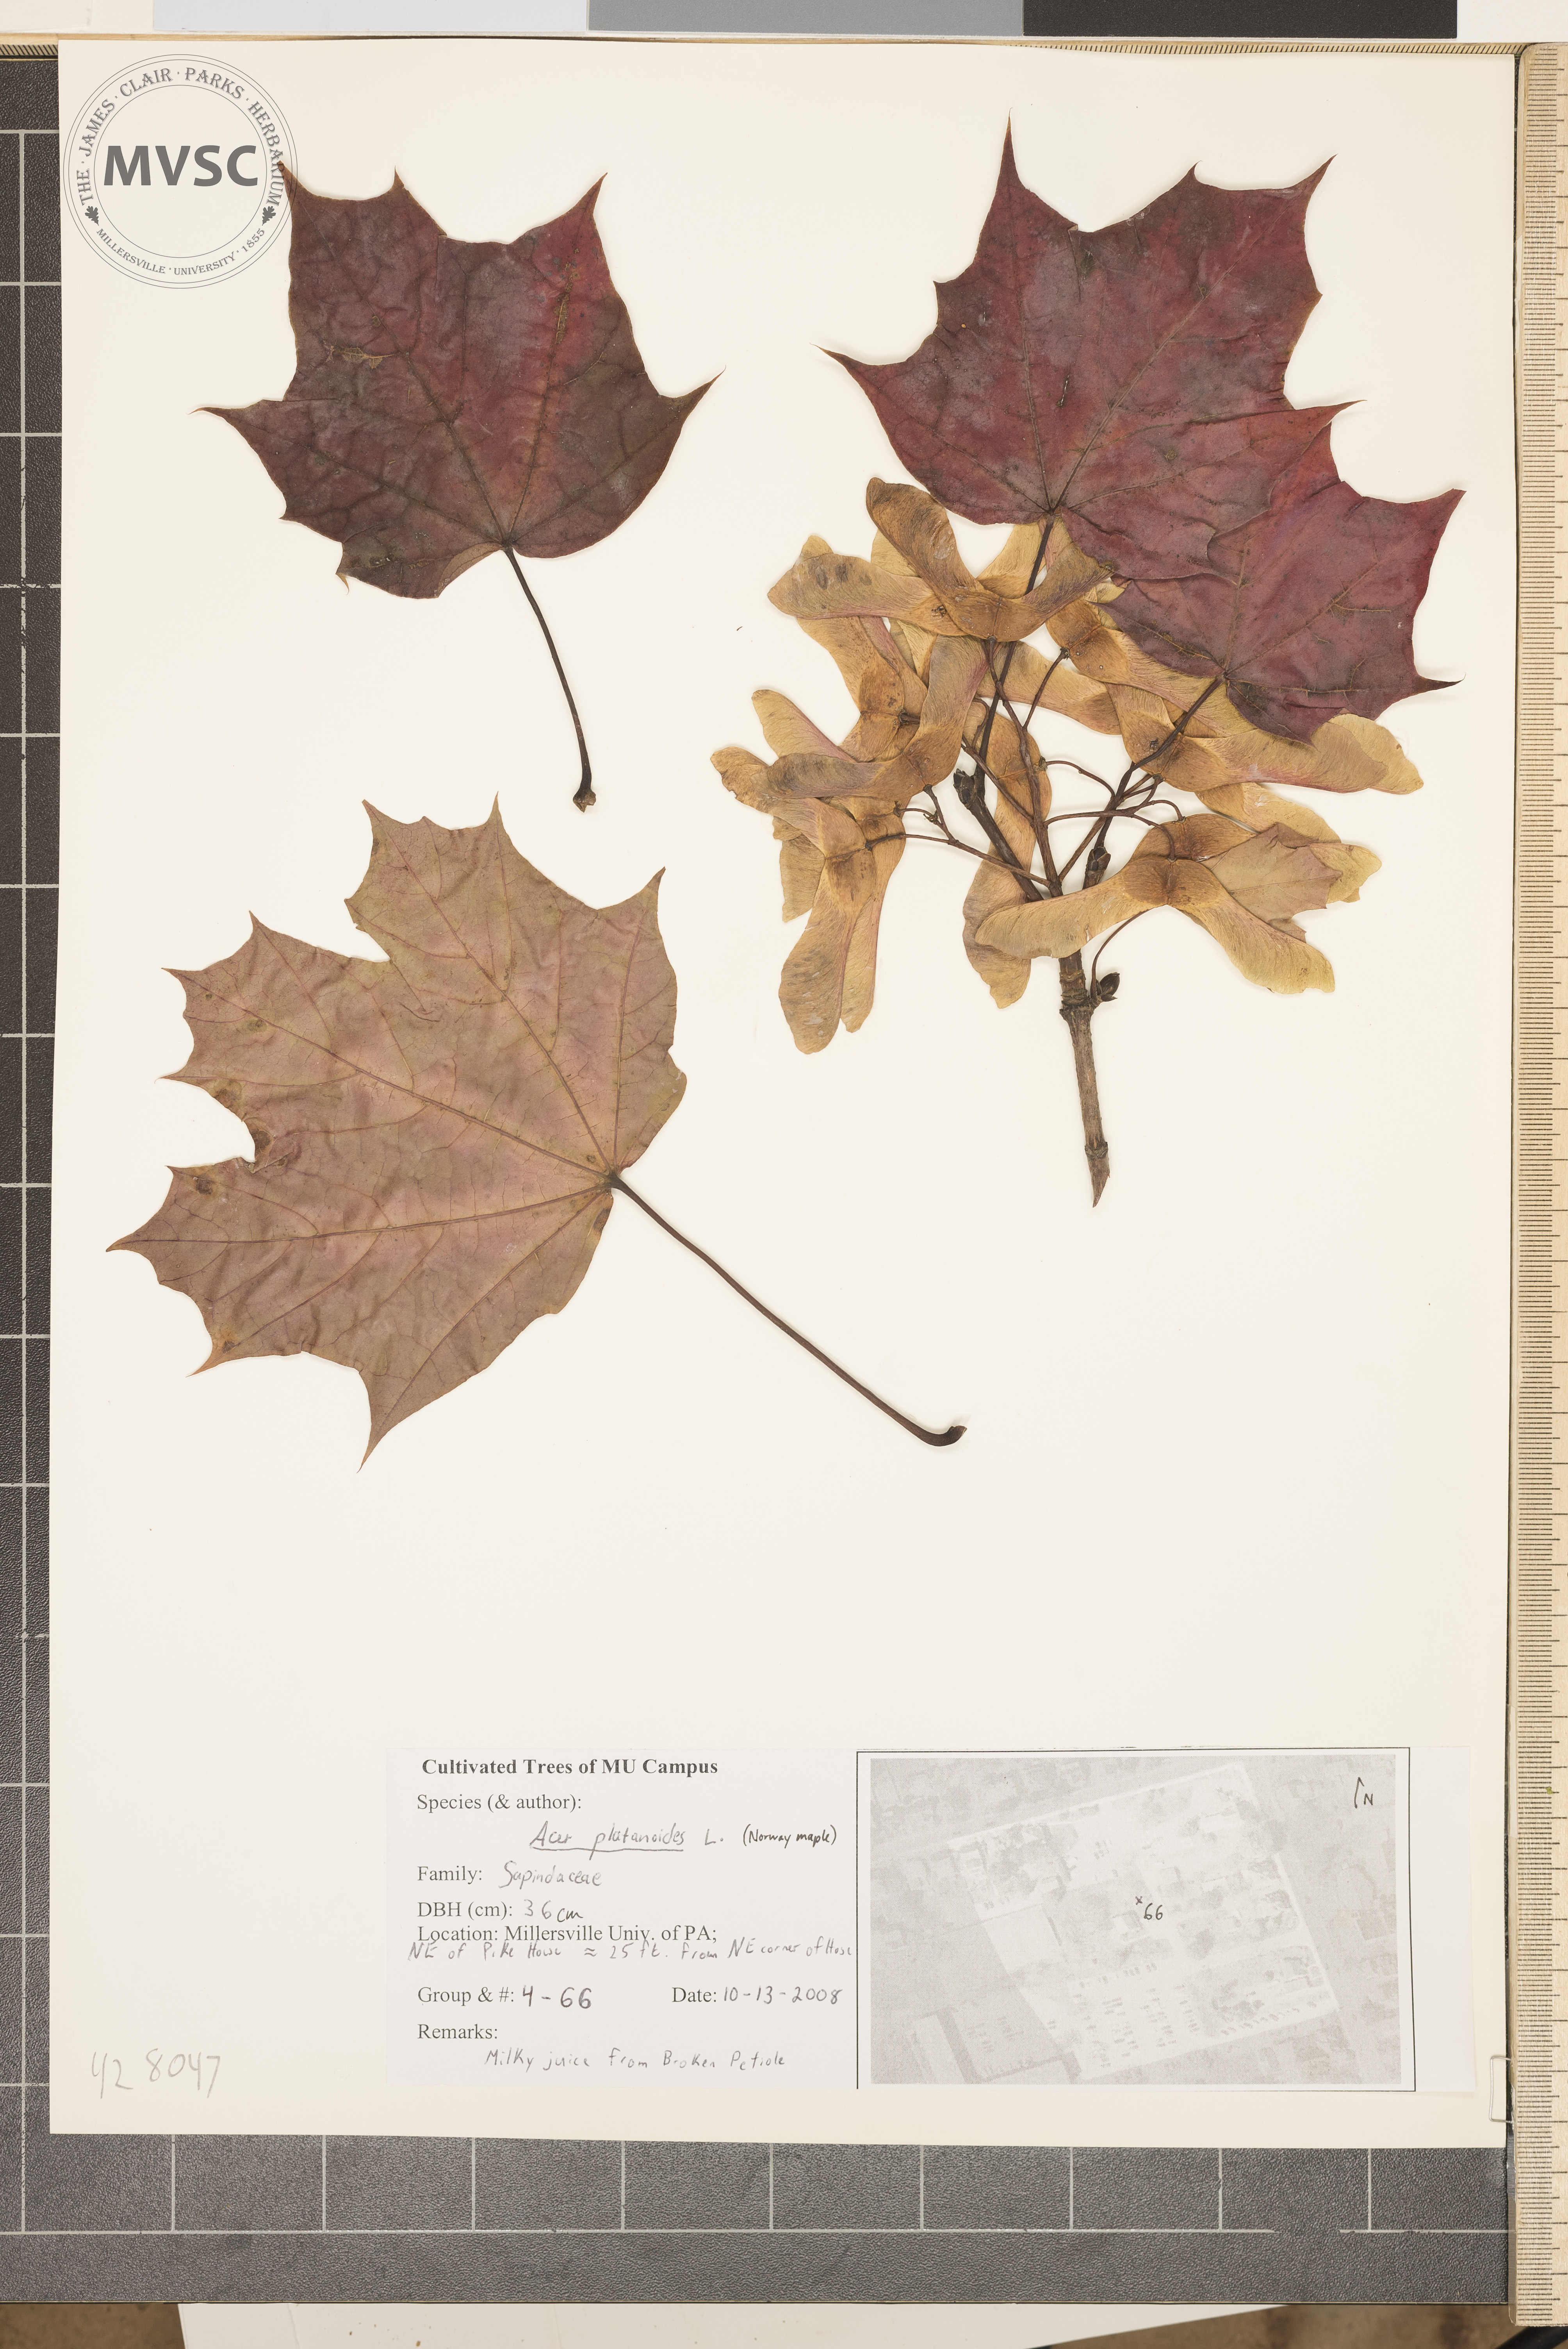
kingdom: Plantae
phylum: Tracheophyta
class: Magnoliopsida
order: Sapindales
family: Sapindaceae
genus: Acer
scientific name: Acer platanoides
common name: Norway Maple
